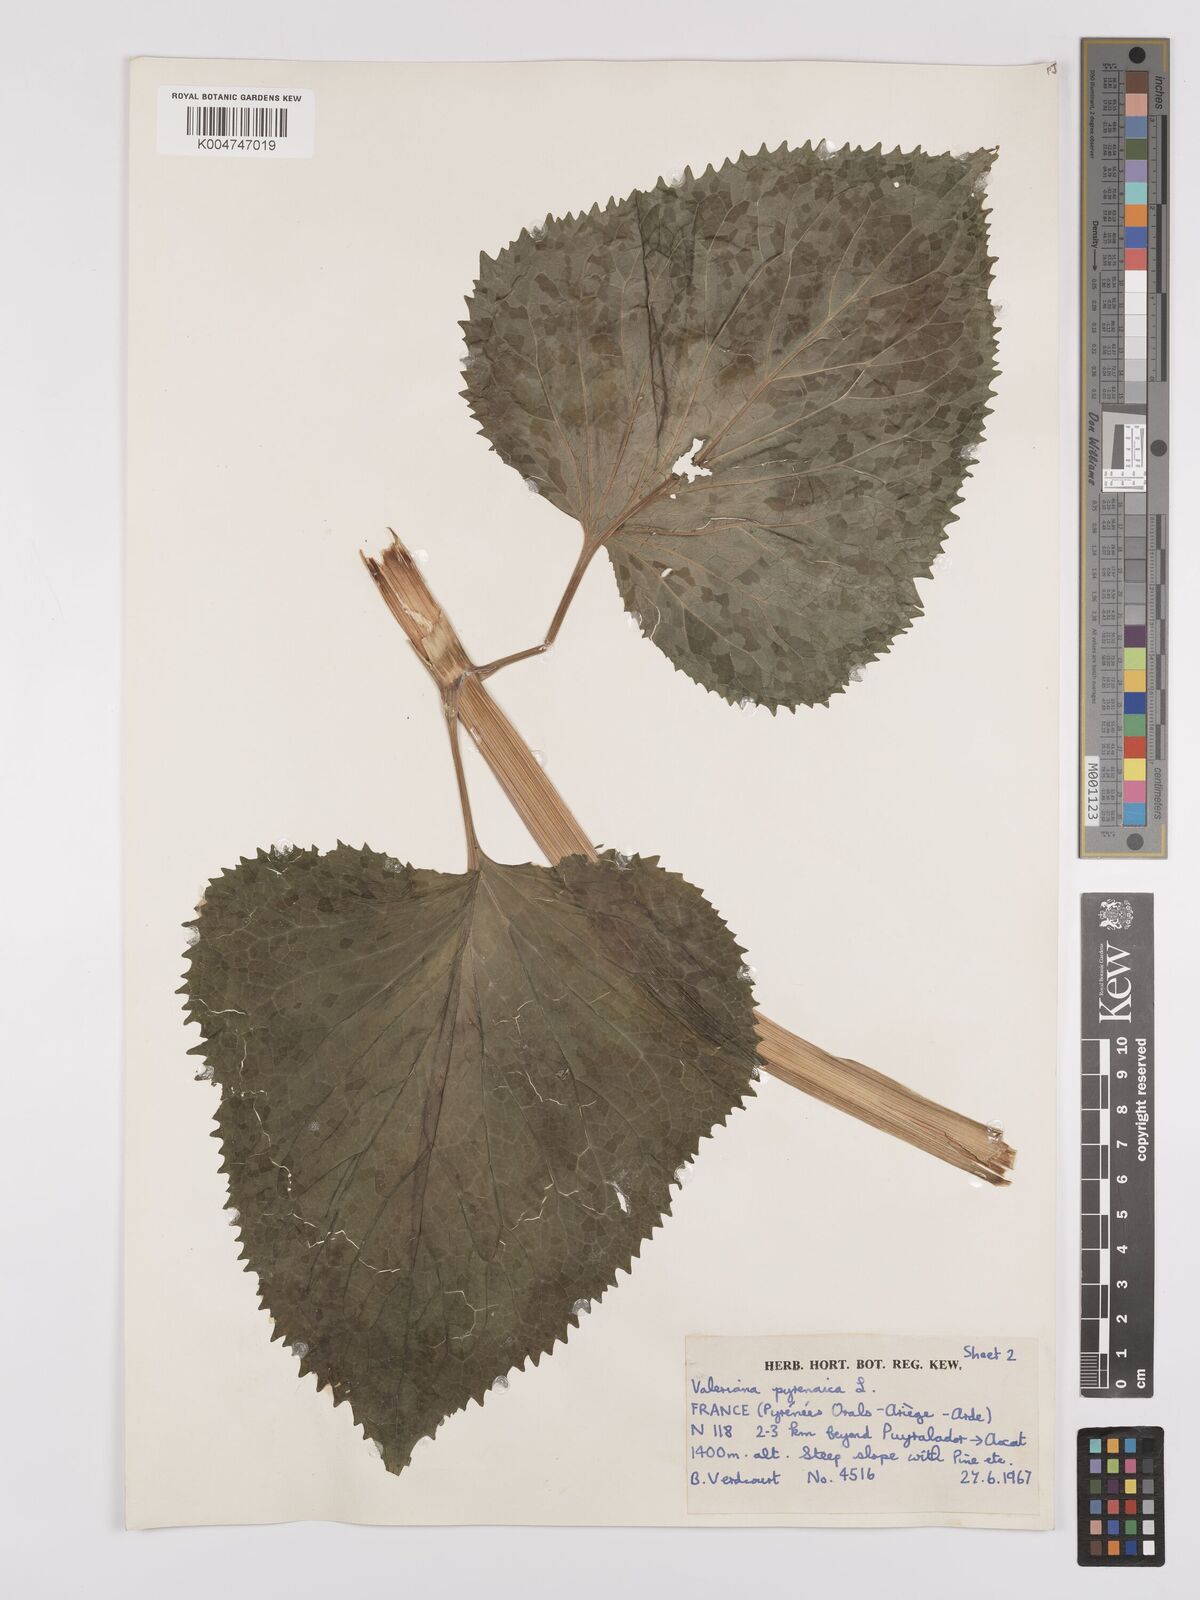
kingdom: Plantae
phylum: Tracheophyta
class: Magnoliopsida
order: Dipsacales
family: Caprifoliaceae
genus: Valeriana
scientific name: Valeriana pyrenaica
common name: Pyrenean valerian
